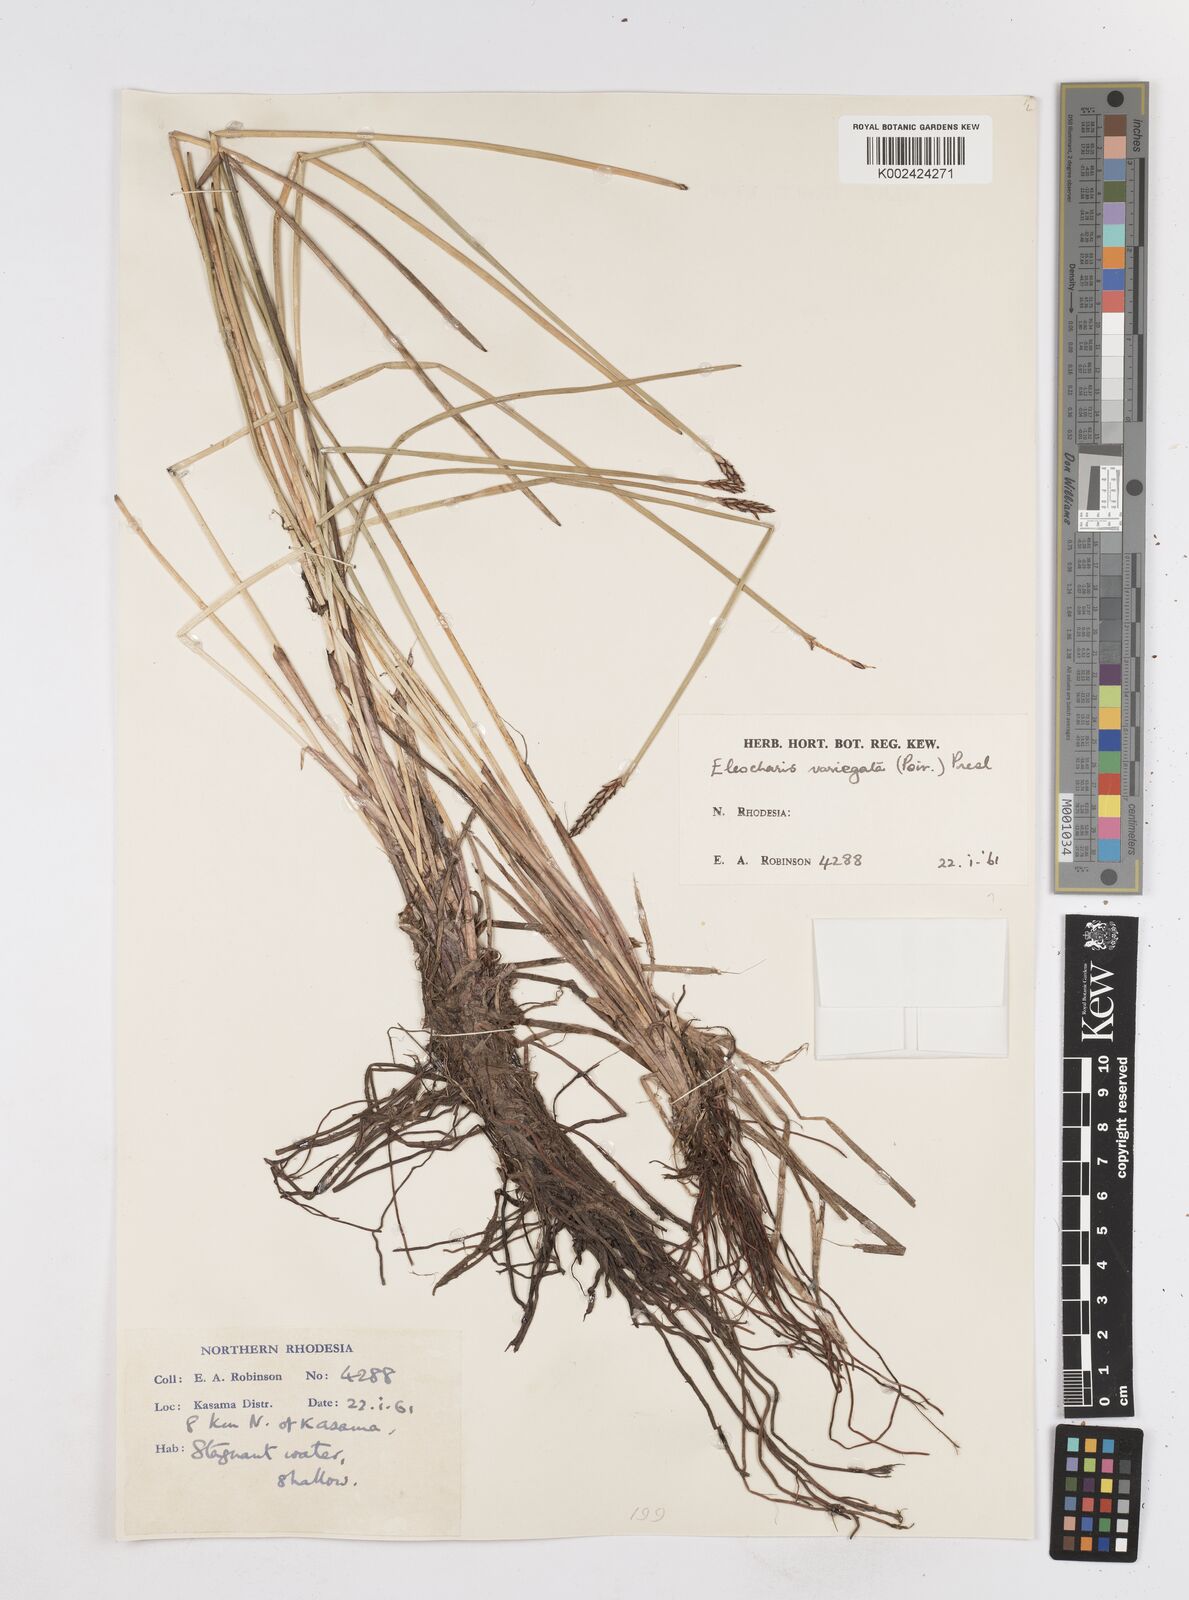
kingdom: Plantae
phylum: Tracheophyta
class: Liliopsida
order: Poales
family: Cyperaceae
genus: Eleocharis
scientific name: Eleocharis variegata
